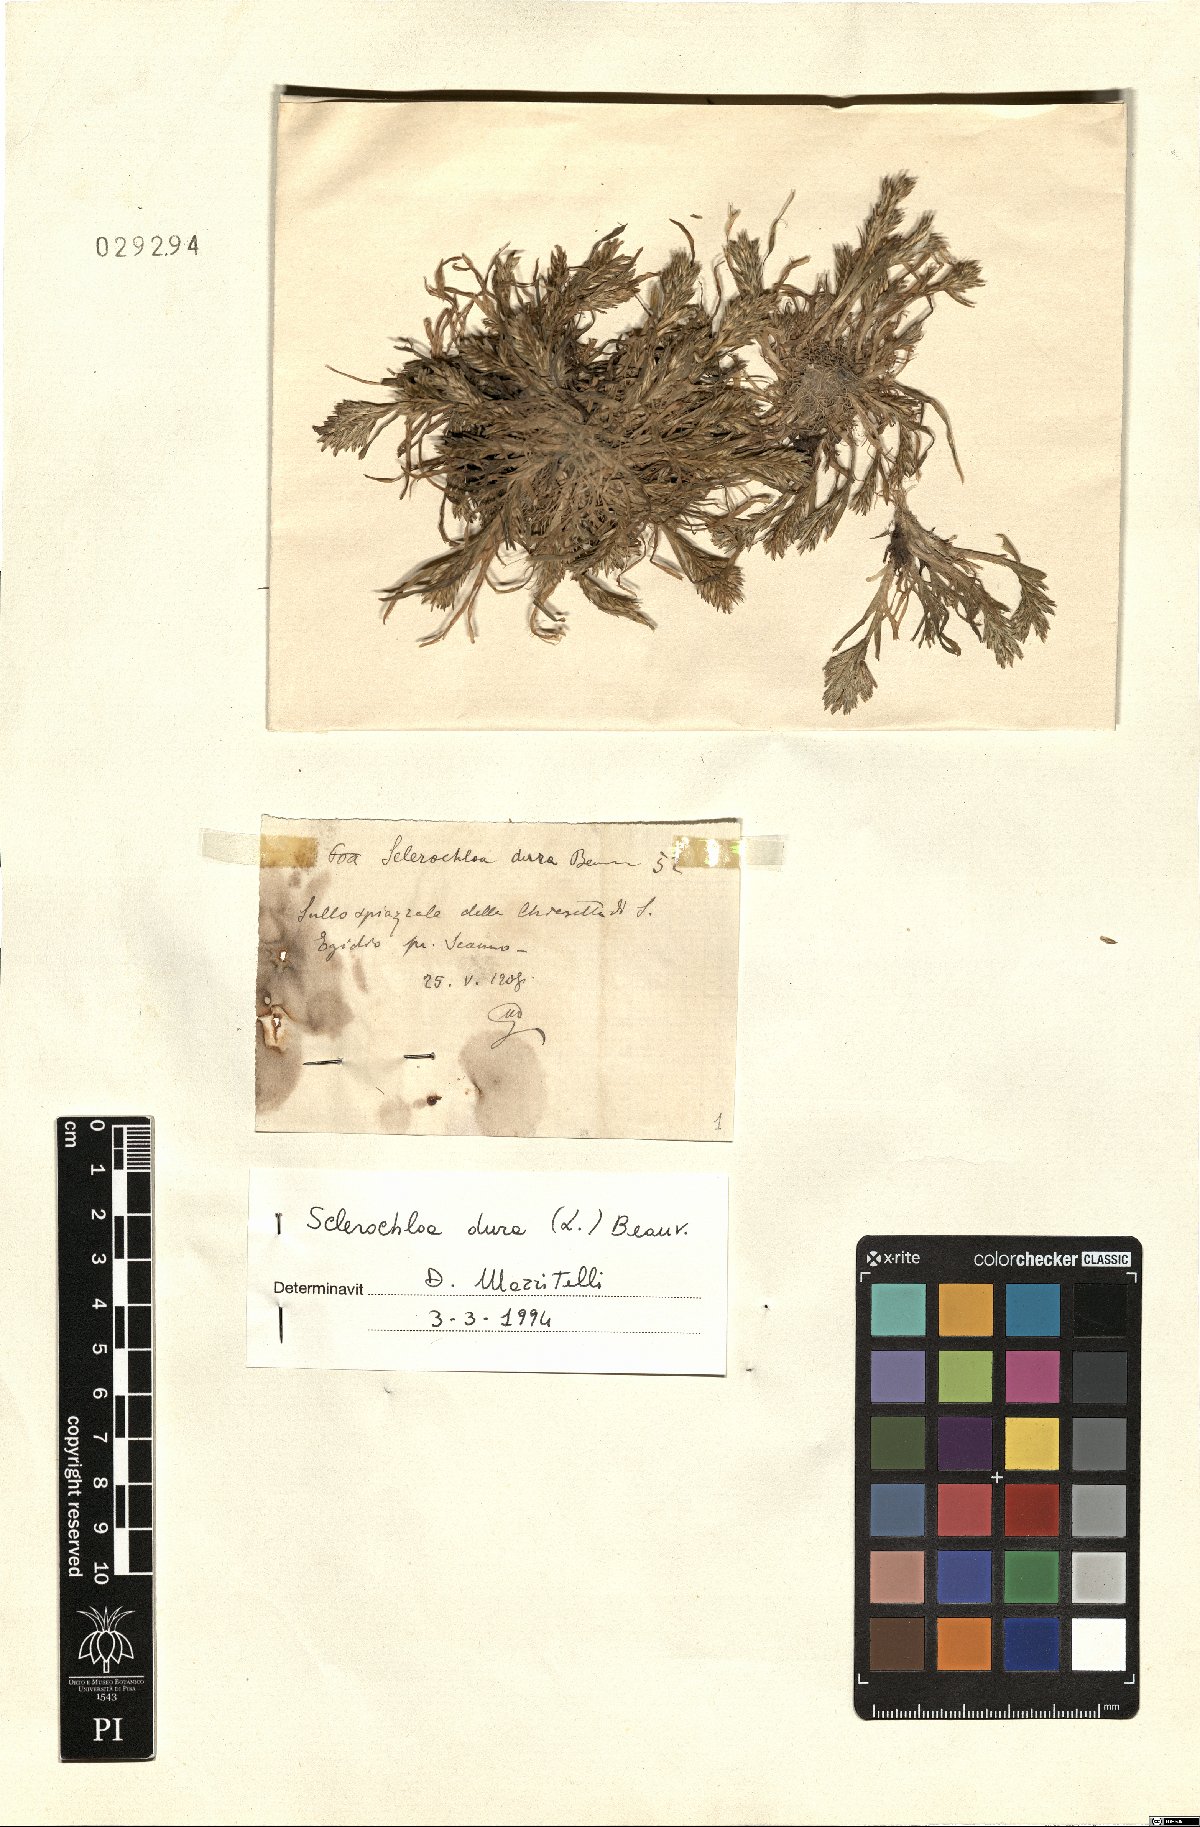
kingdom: Plantae
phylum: Tracheophyta
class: Liliopsida
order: Poales
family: Poaceae
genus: Sclerochloa
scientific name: Sclerochloa dura
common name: Common hardgrass
